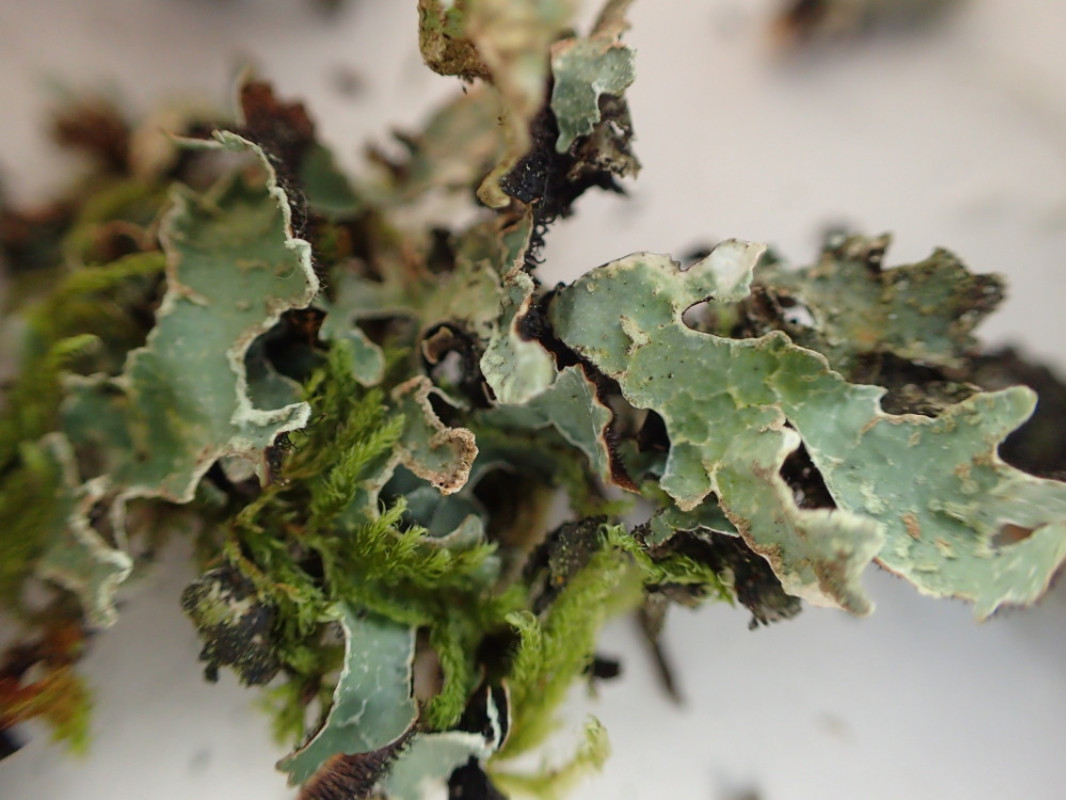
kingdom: Fungi
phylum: Ascomycota
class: Lecanoromycetes
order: Lecanorales
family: Parmeliaceae
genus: Parmelia
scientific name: Parmelia sulcata
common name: rynket skållav
